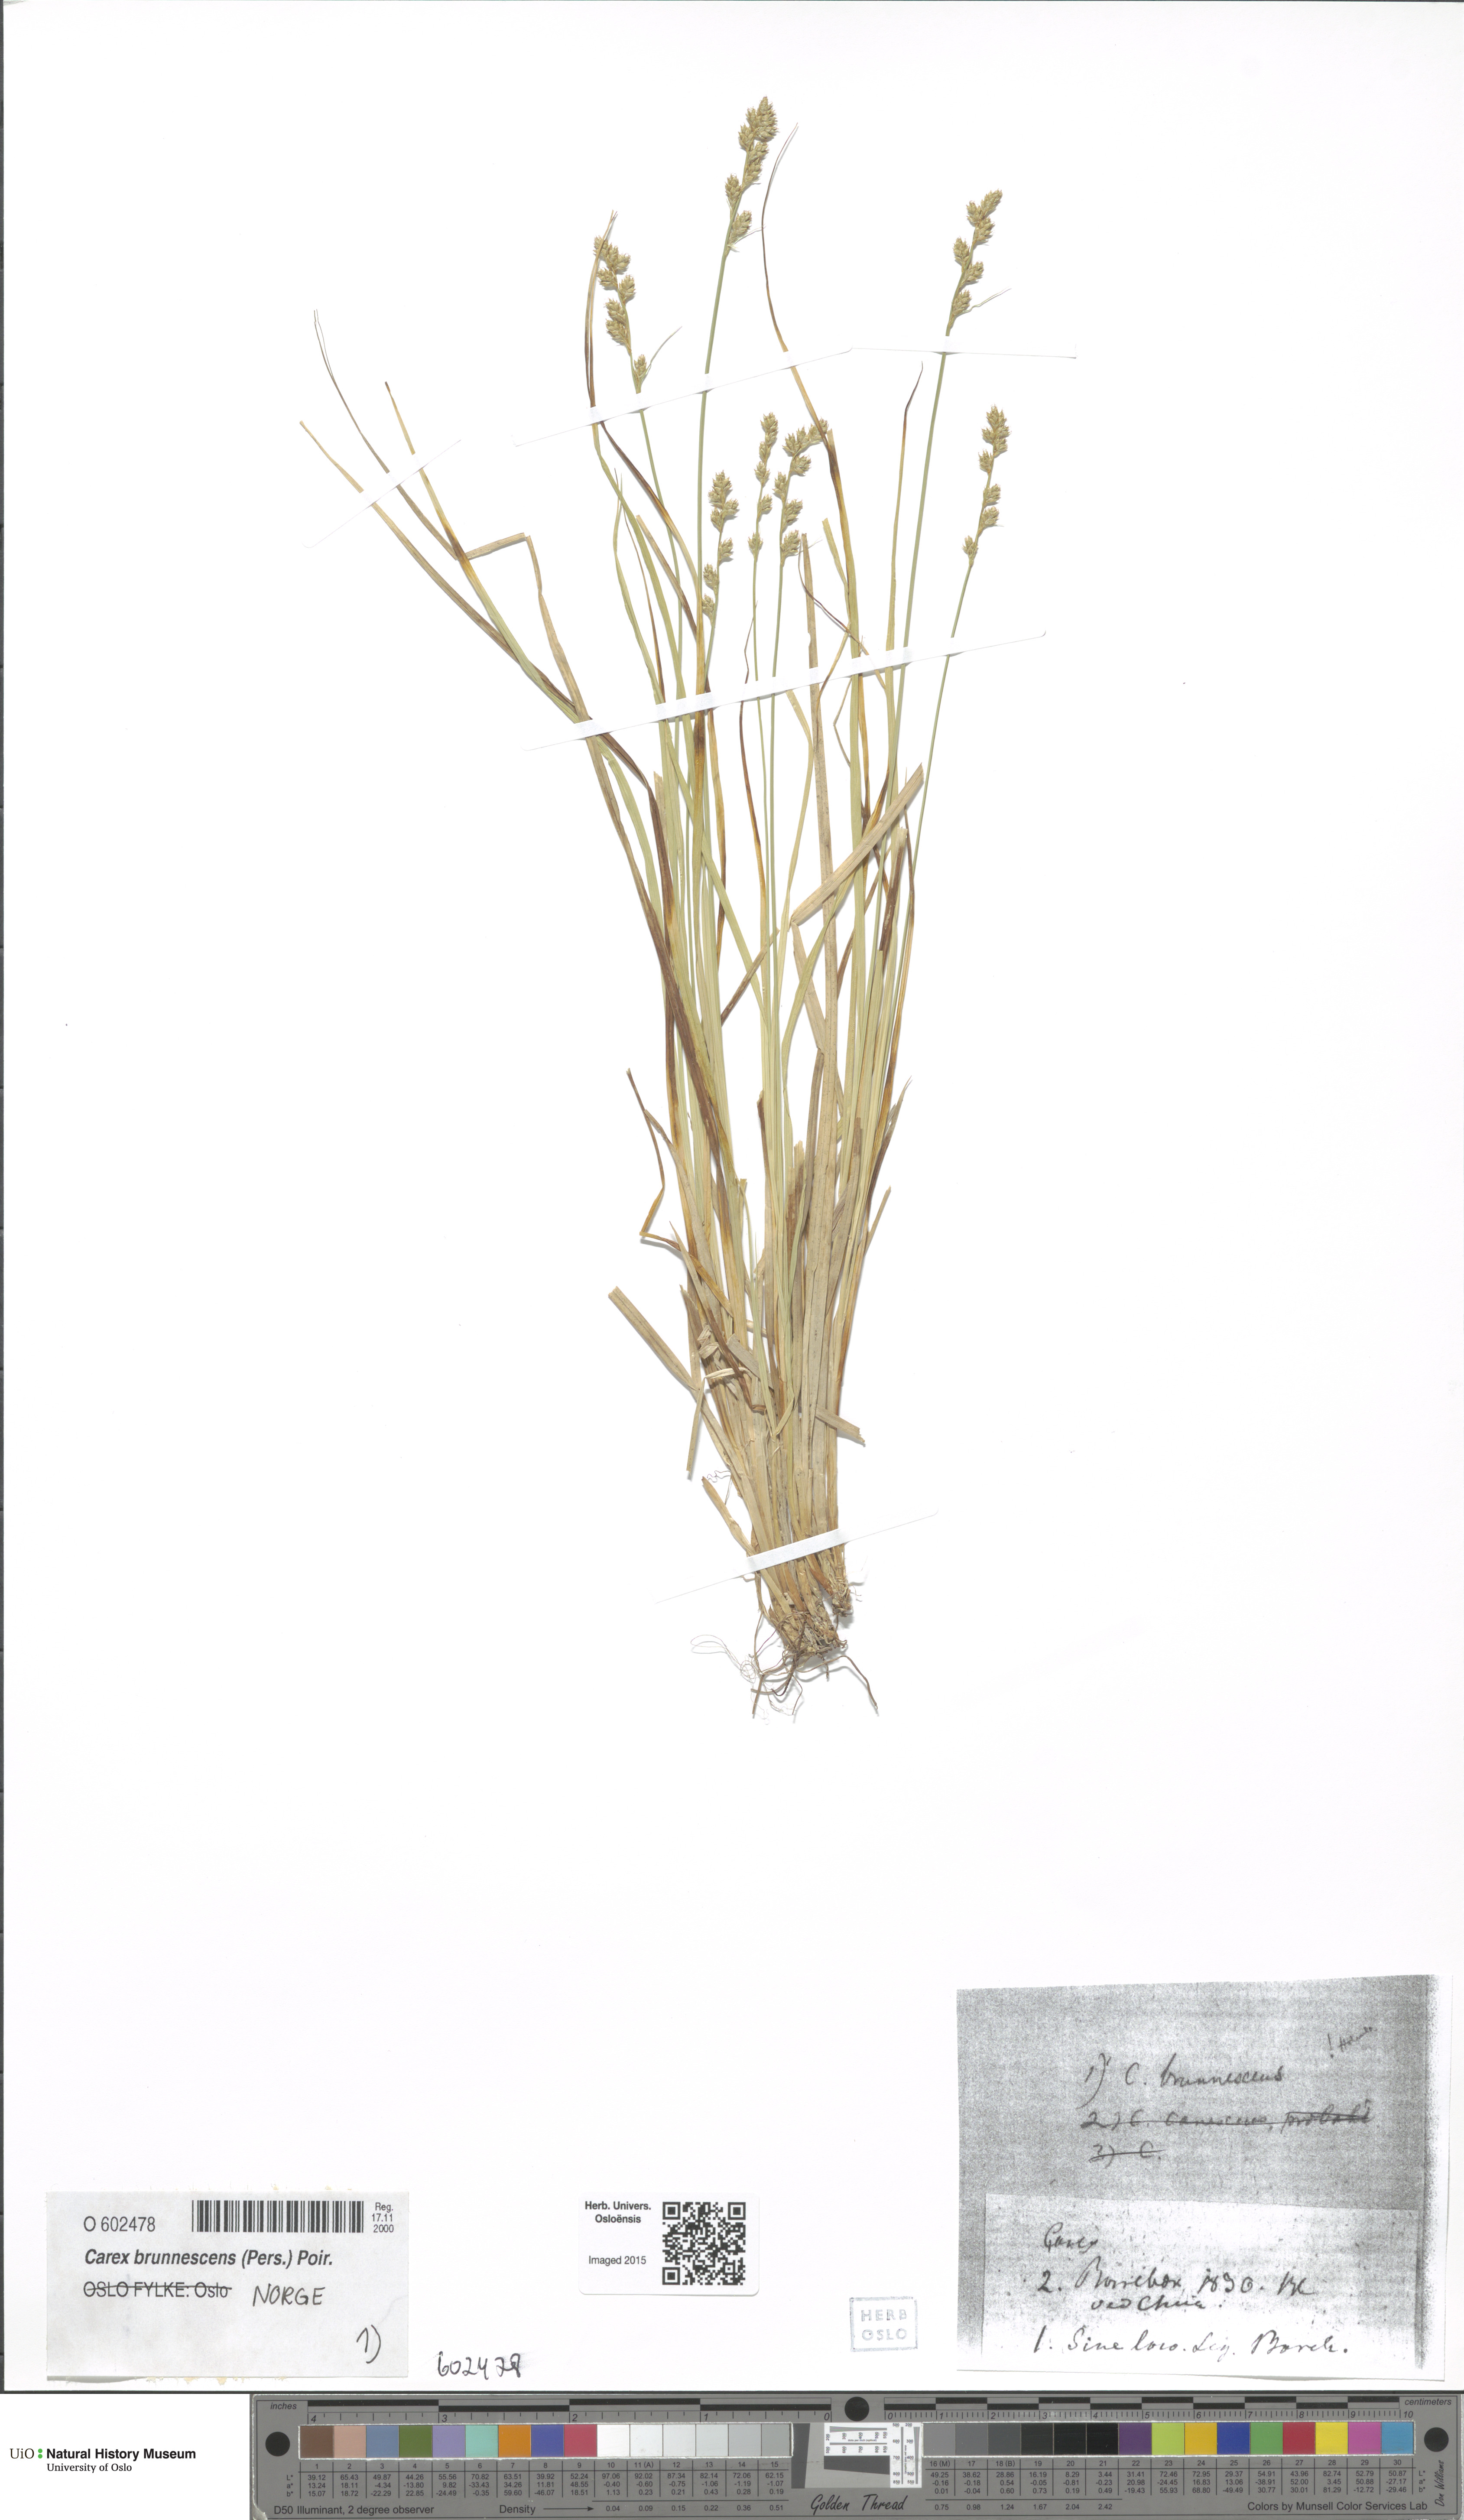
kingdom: Plantae
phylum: Tracheophyta
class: Liliopsida
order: Poales
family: Cyperaceae
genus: Carex
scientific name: Carex canescens
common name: White sedge
